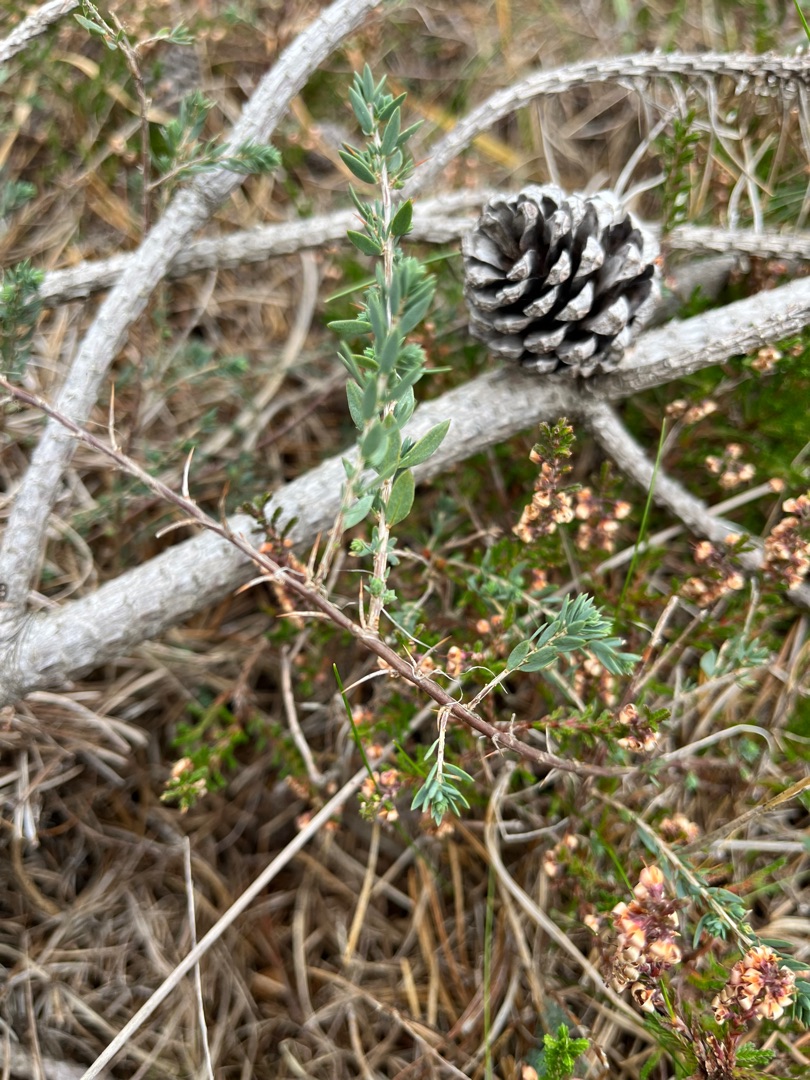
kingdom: Plantae
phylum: Tracheophyta
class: Magnoliopsida
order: Fabales
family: Fabaceae
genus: Genista
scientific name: Genista anglica
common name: Engelsk visse
